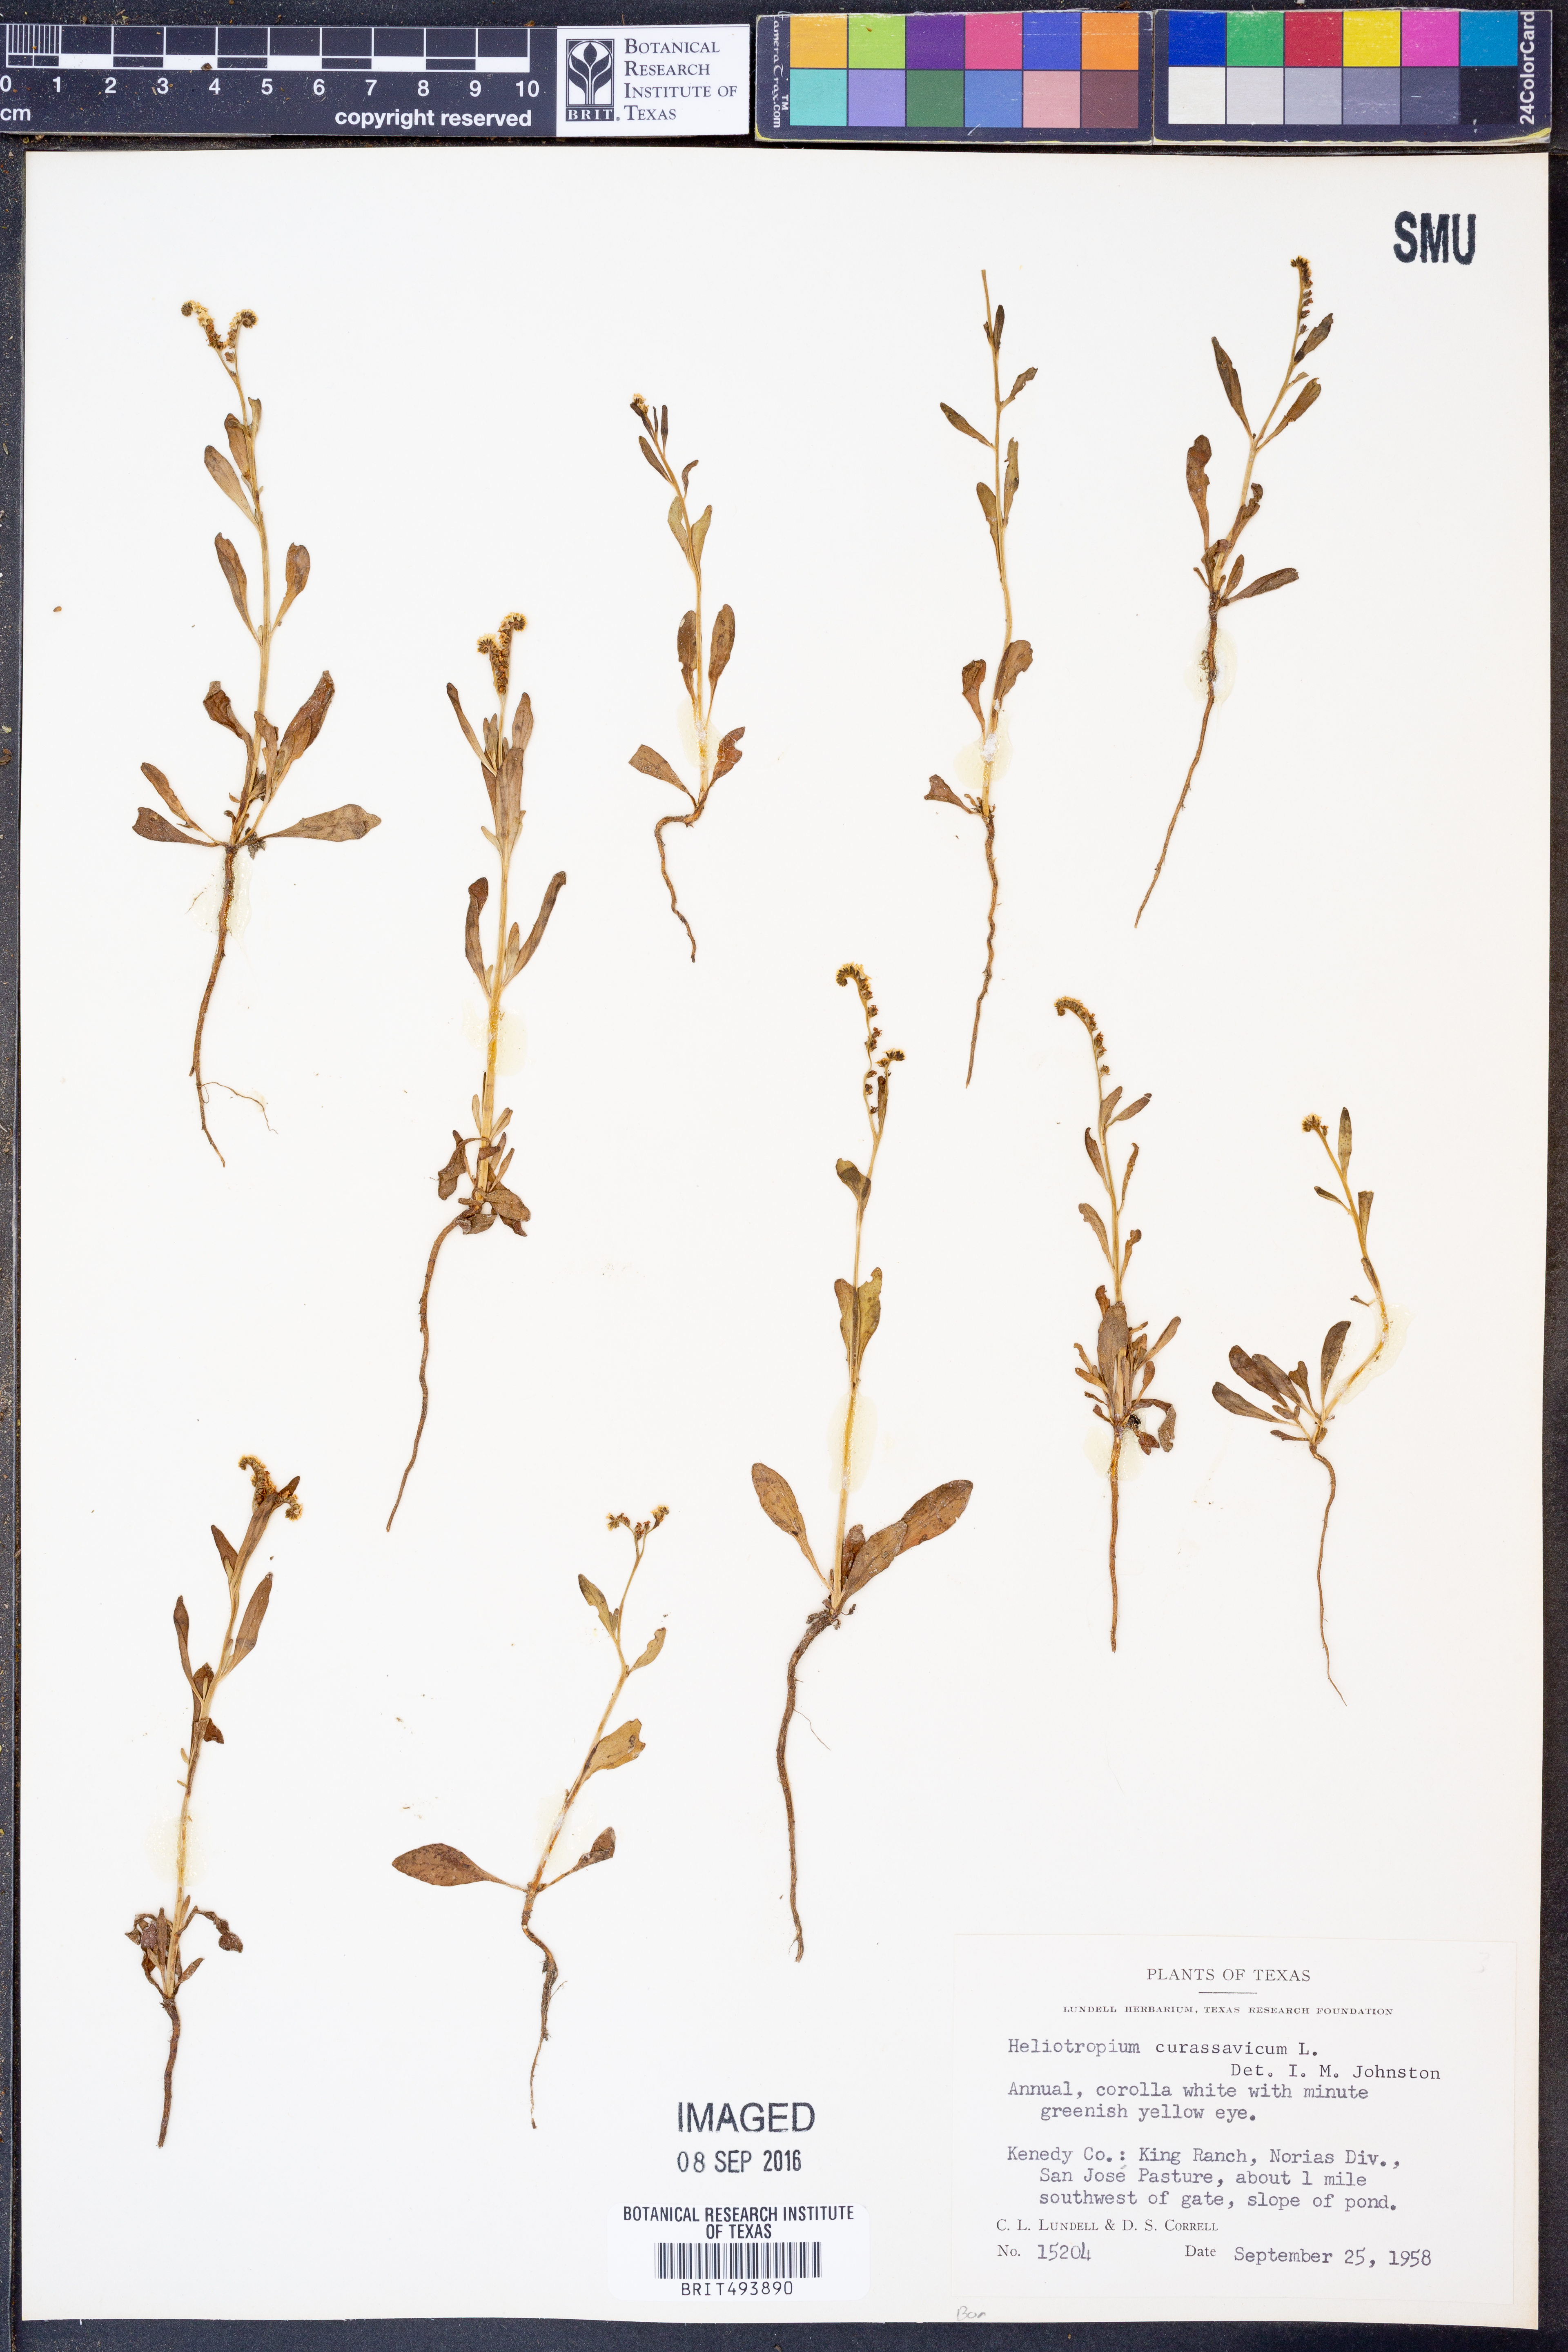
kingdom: Plantae
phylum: Tracheophyta
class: Magnoliopsida
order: Boraginales
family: Heliotropiaceae
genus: Heliotropium
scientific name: Heliotropium curassavicum
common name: Seaside heliotrope
